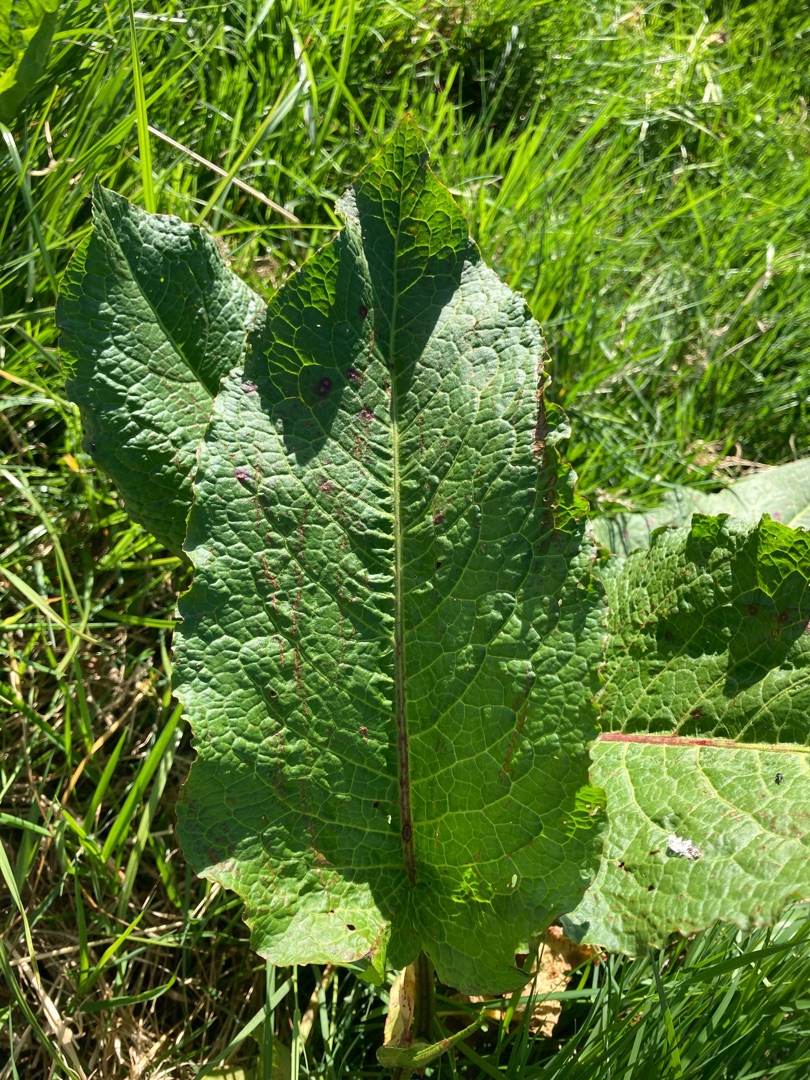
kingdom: Plantae
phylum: Tracheophyta
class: Magnoliopsida
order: Caryophyllales
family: Polygonaceae
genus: Rumex
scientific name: Rumex obtusifolius
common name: Butbladet skræppe
